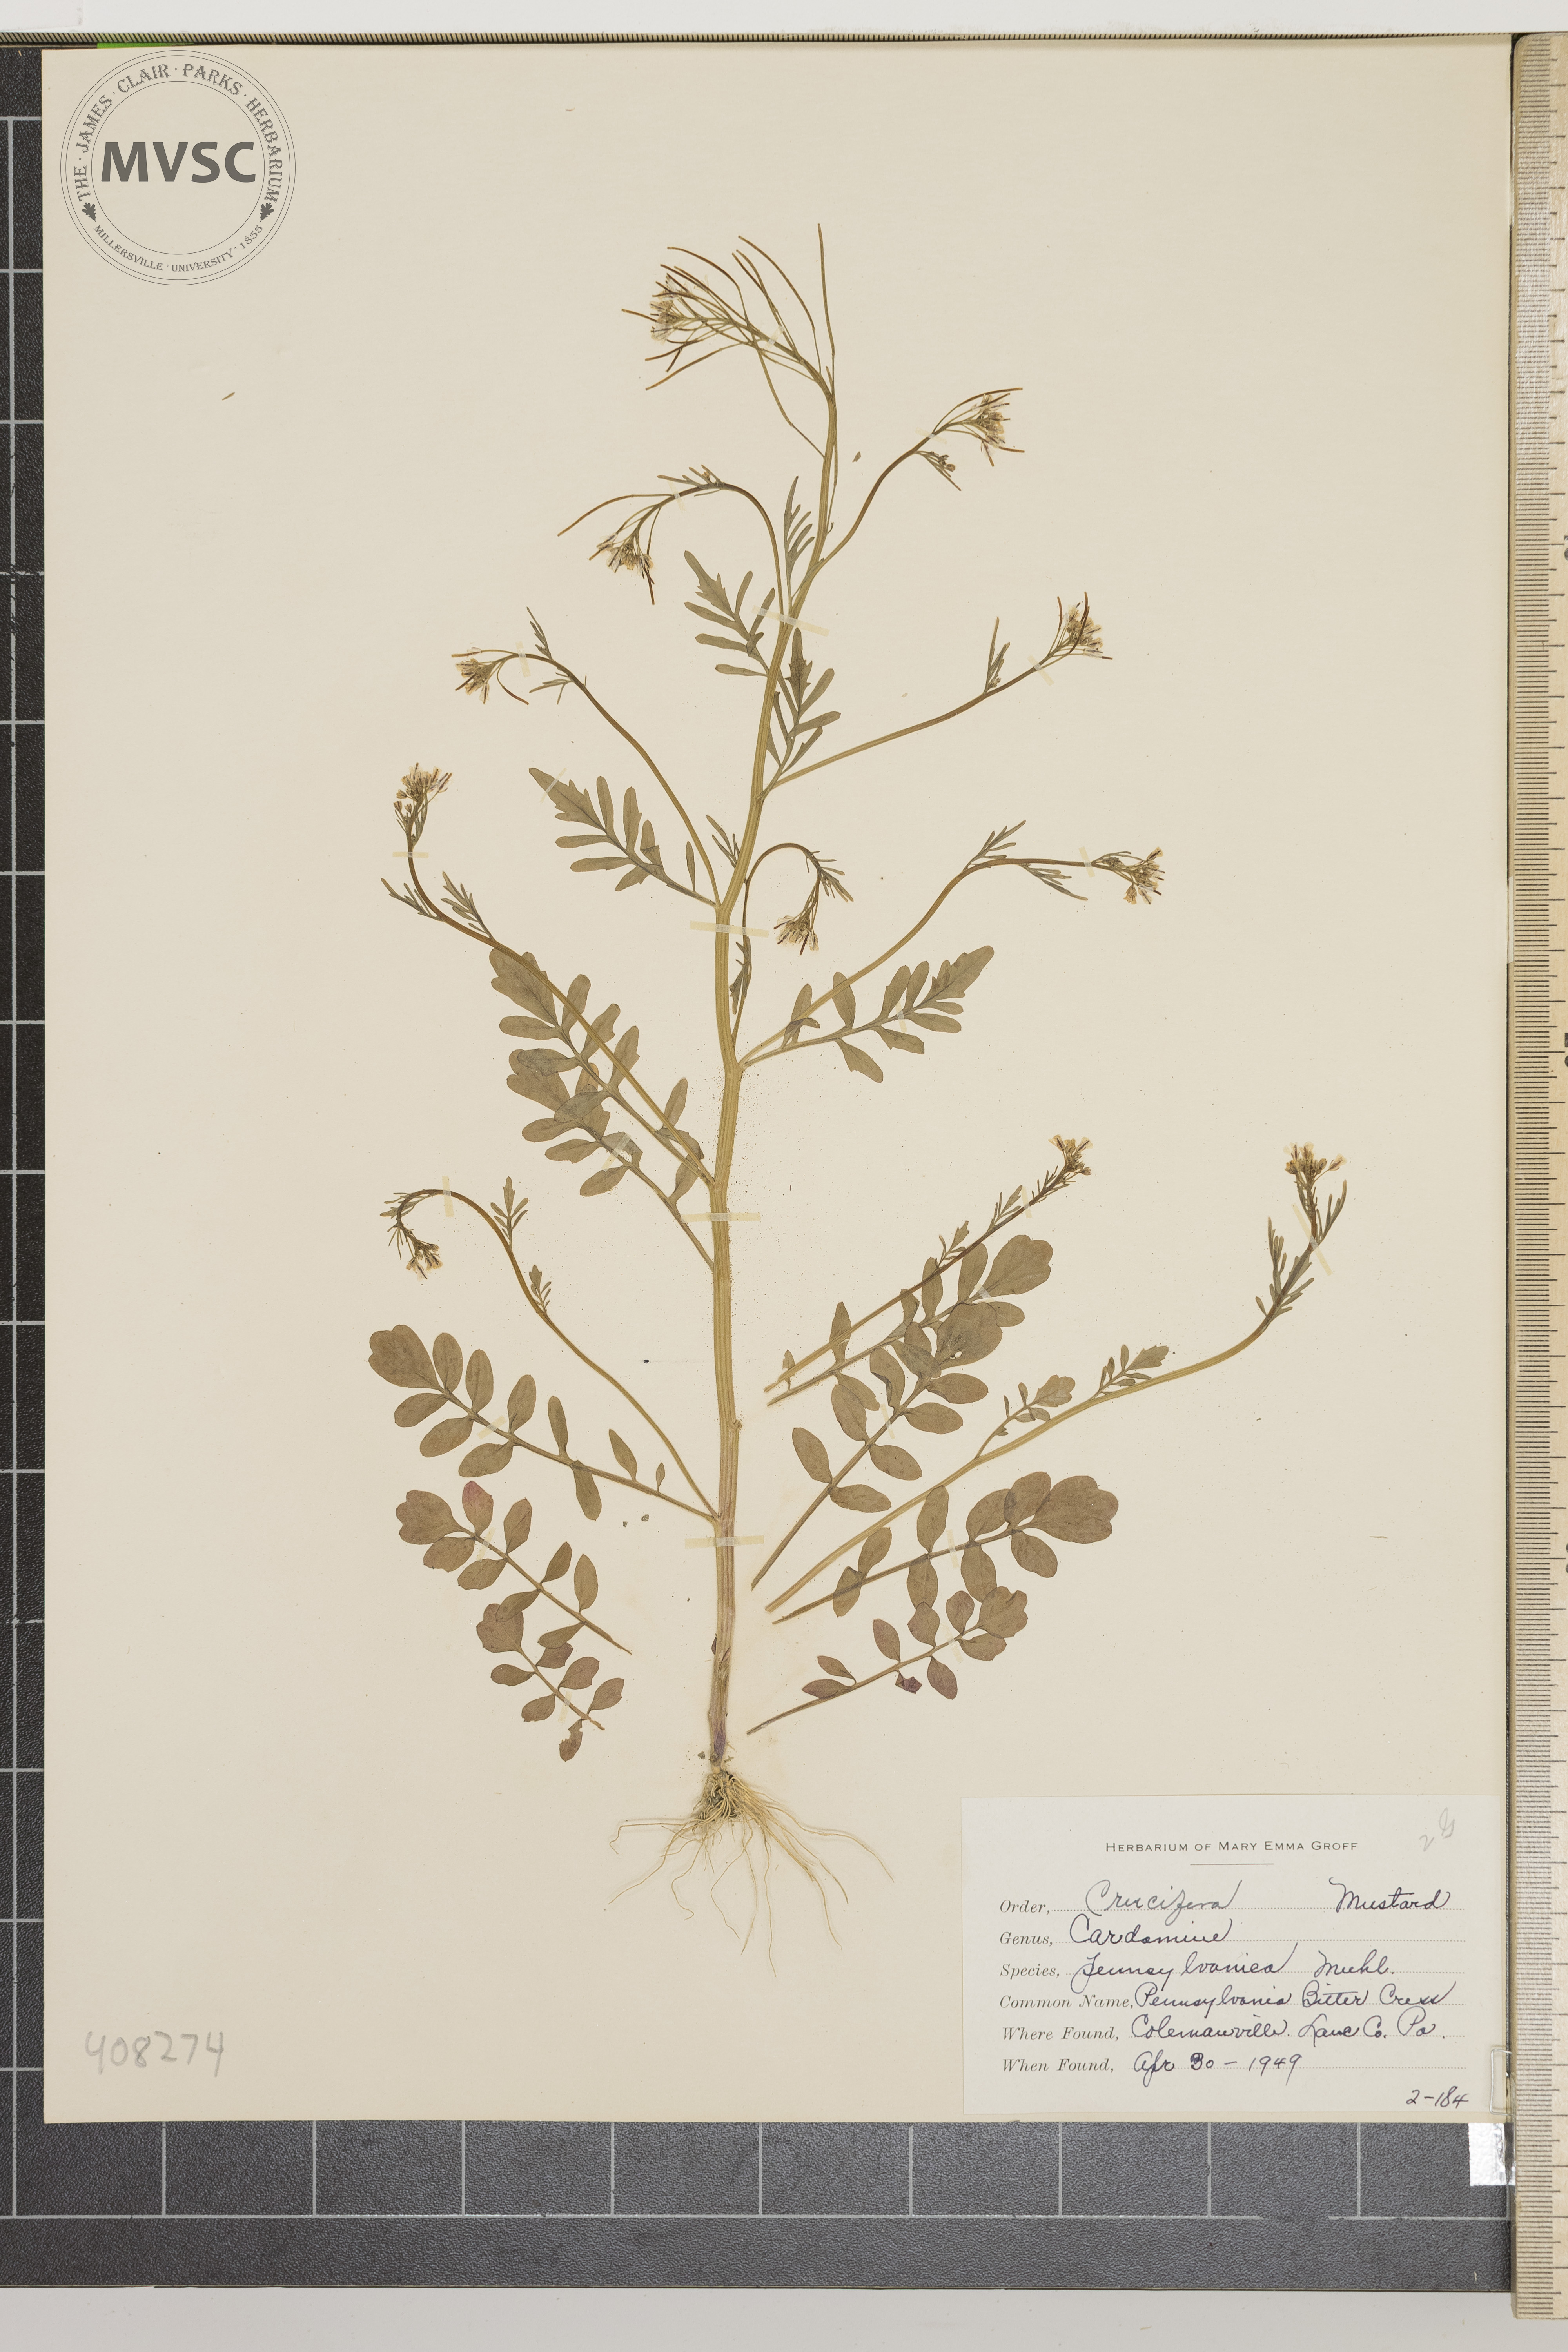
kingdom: Plantae
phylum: Tracheophyta
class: Magnoliopsida
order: Brassicales
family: Brassicaceae
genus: Cardamine
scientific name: Cardamine pensylvanica
